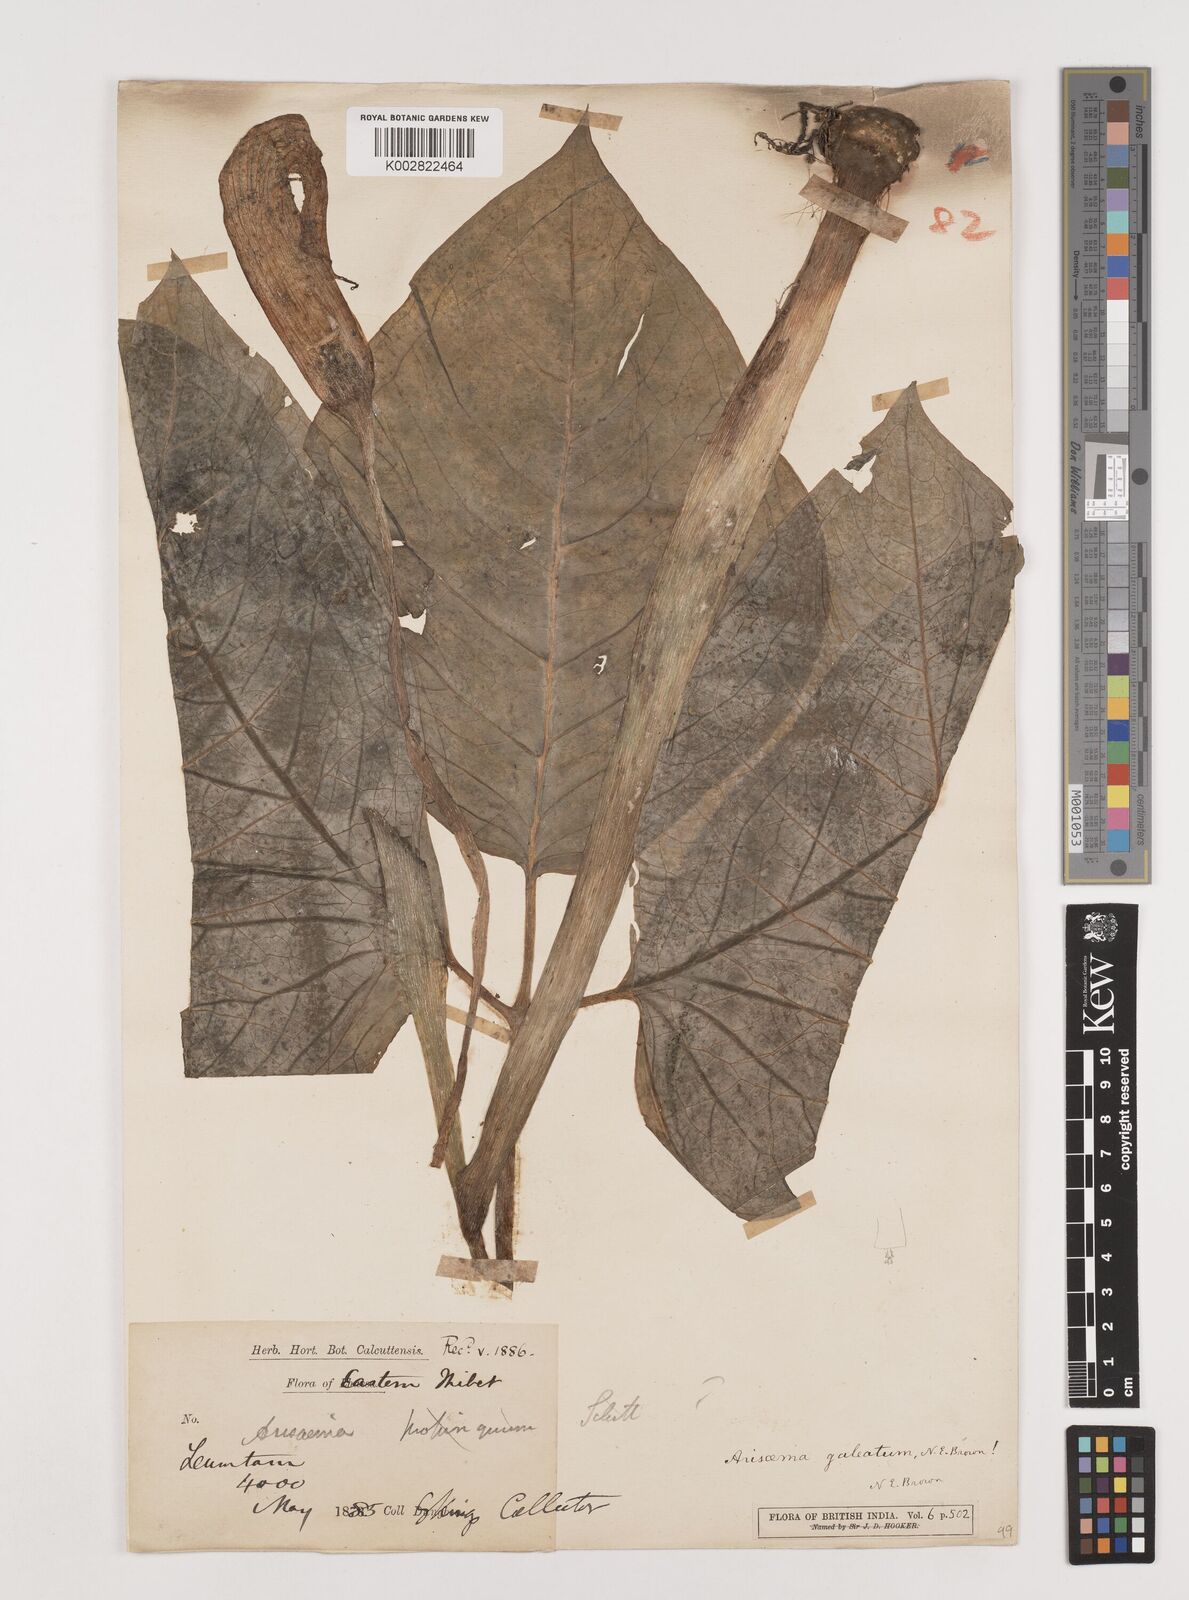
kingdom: Plantae
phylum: Tracheophyta
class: Liliopsida
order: Alismatales
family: Araceae
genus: Arisaema
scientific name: Arisaema galeatum
